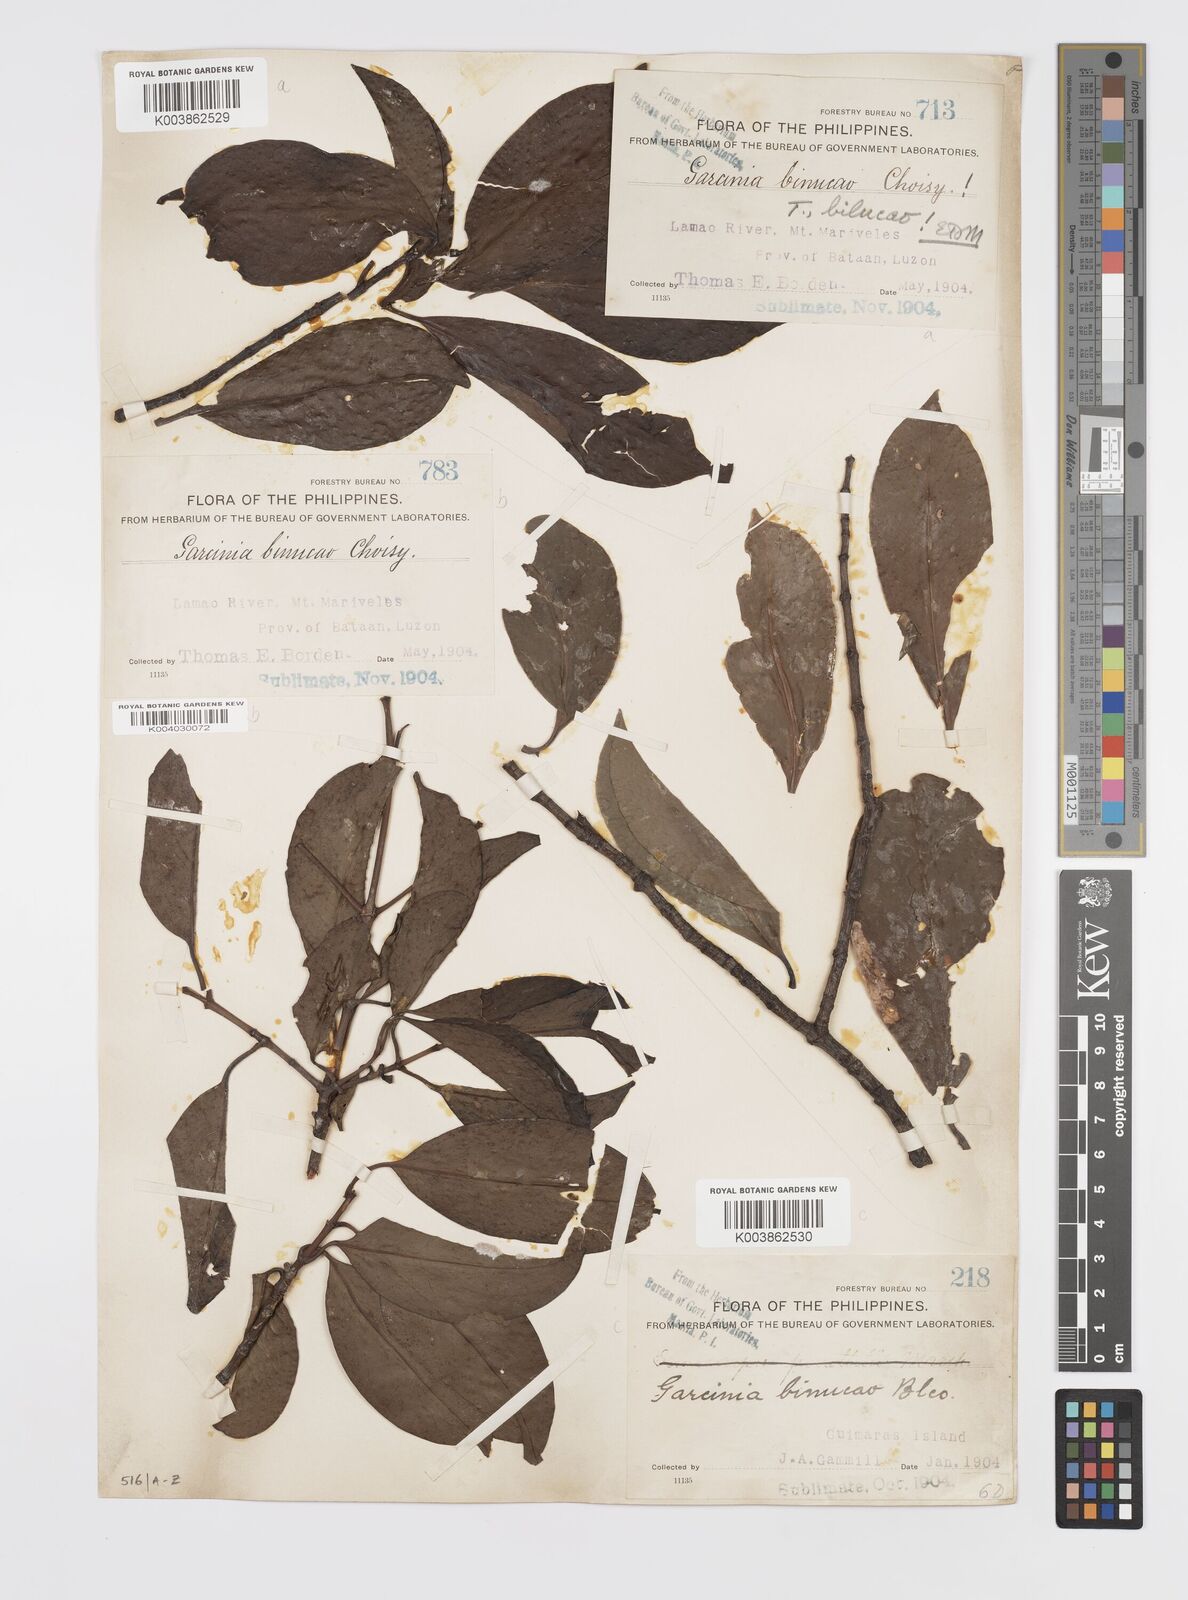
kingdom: Plantae
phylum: Tracheophyta
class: Magnoliopsida
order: Malpighiales
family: Clusiaceae
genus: Garcinia
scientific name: Garcinia binucao
